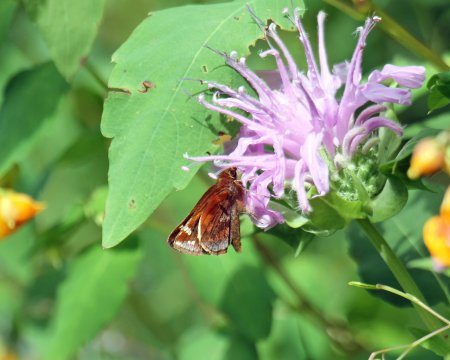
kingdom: Animalia
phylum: Arthropoda
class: Insecta
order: Lepidoptera
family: Hesperiidae
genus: Lon
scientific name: Lon zabulon
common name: Zabulon Skipper
